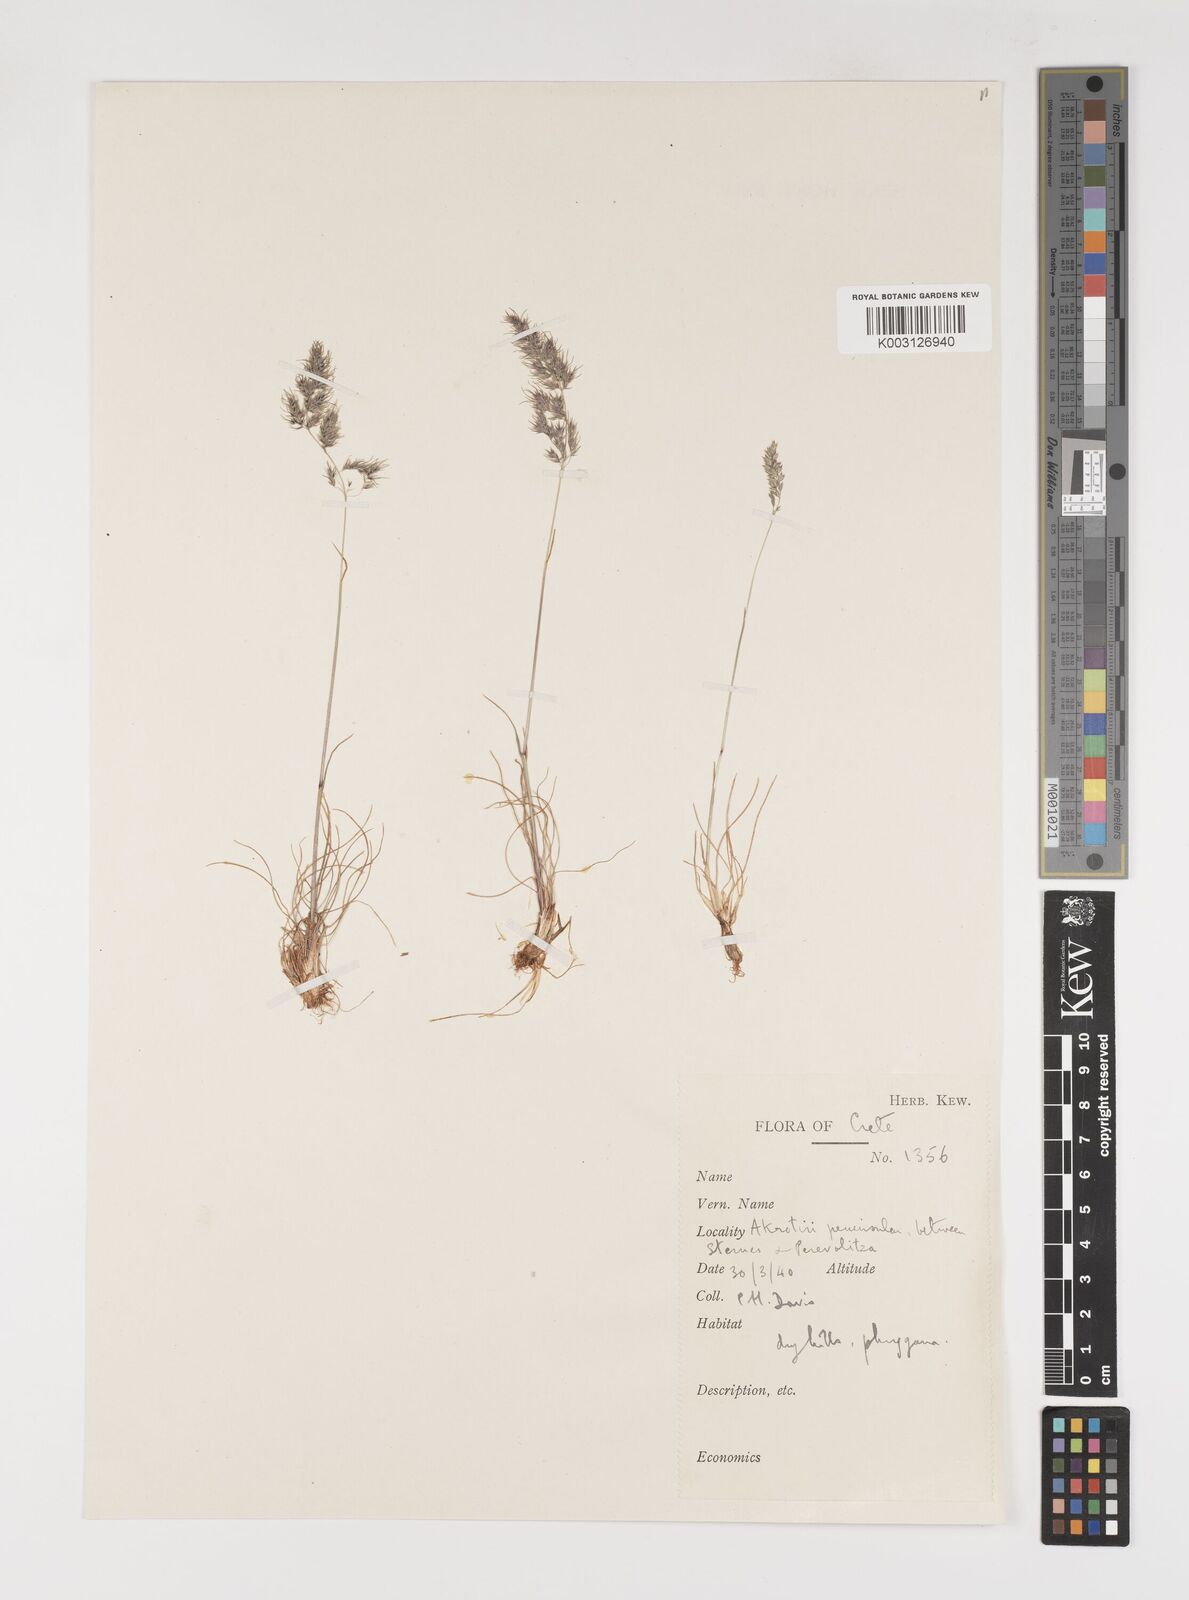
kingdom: Plantae
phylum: Tracheophyta
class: Liliopsida
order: Poales
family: Poaceae
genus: Poa
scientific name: Poa bulbosa
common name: Bulbous bluegrass
